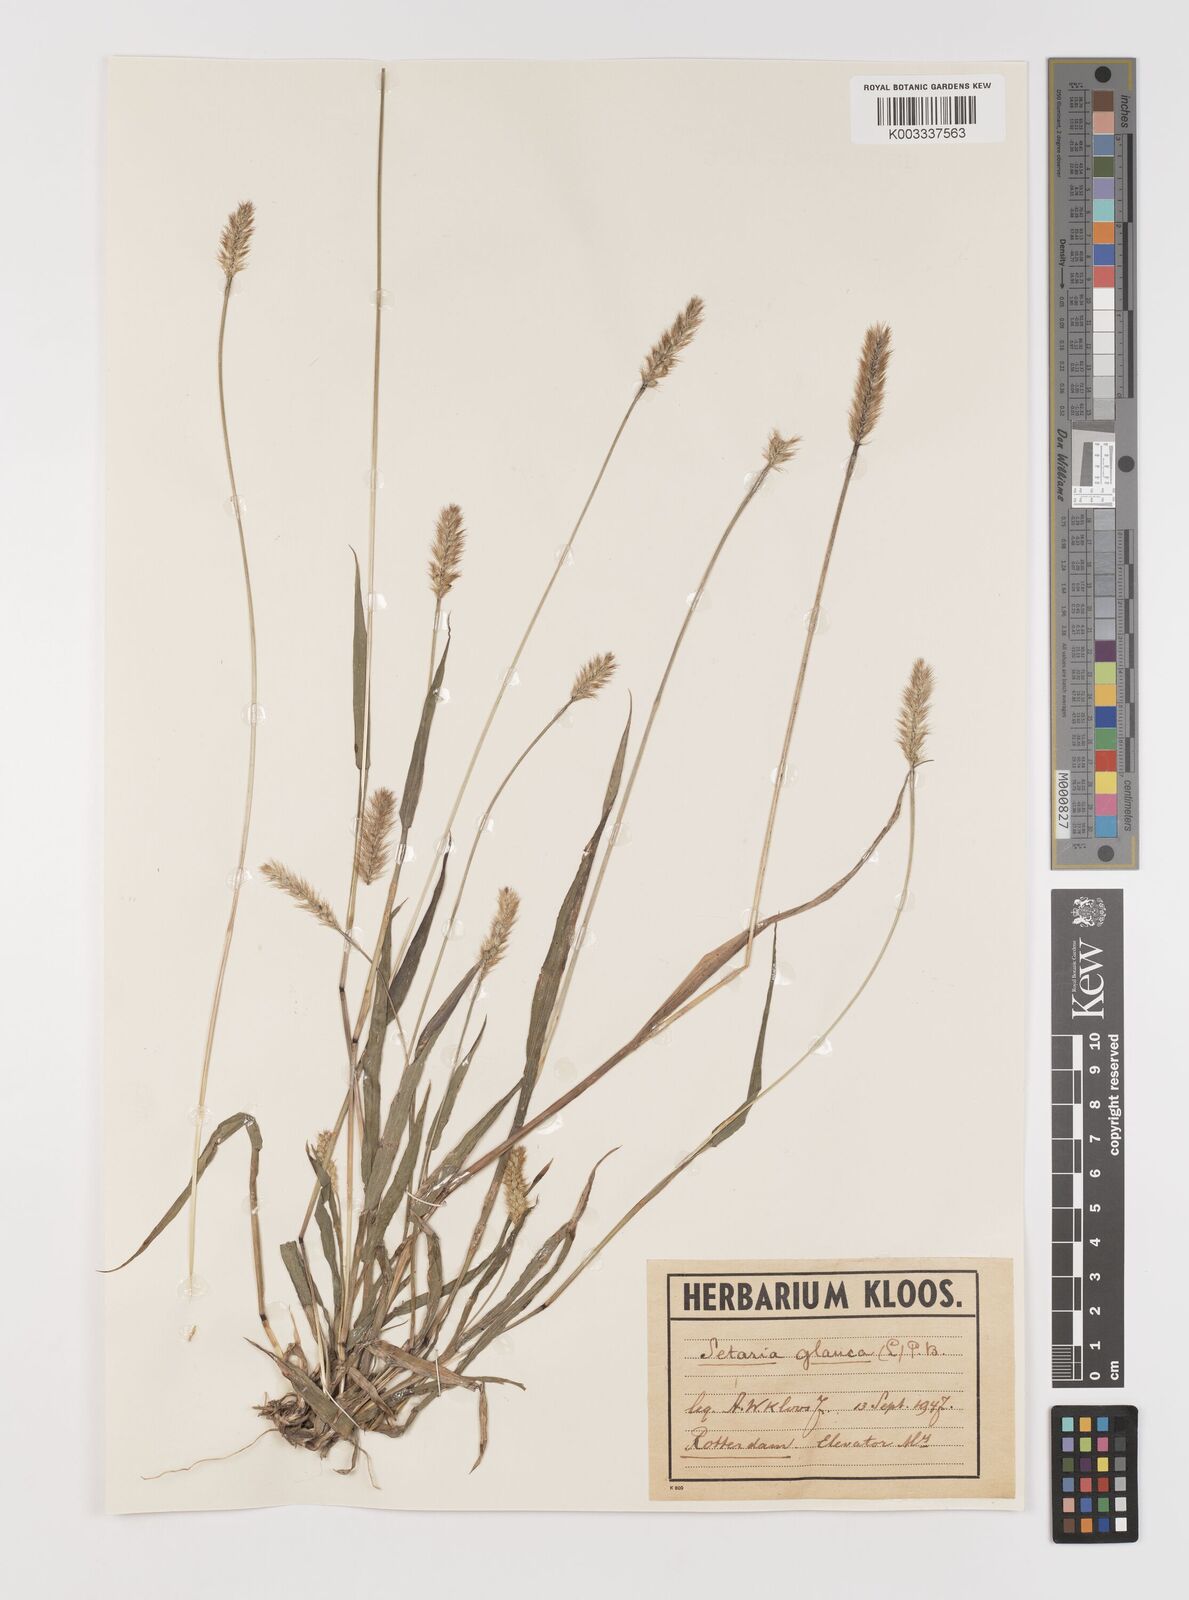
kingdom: Plantae
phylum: Tracheophyta
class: Liliopsida
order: Poales
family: Poaceae
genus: Setaria
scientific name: Setaria pumila
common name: Yellow bristle-grass
